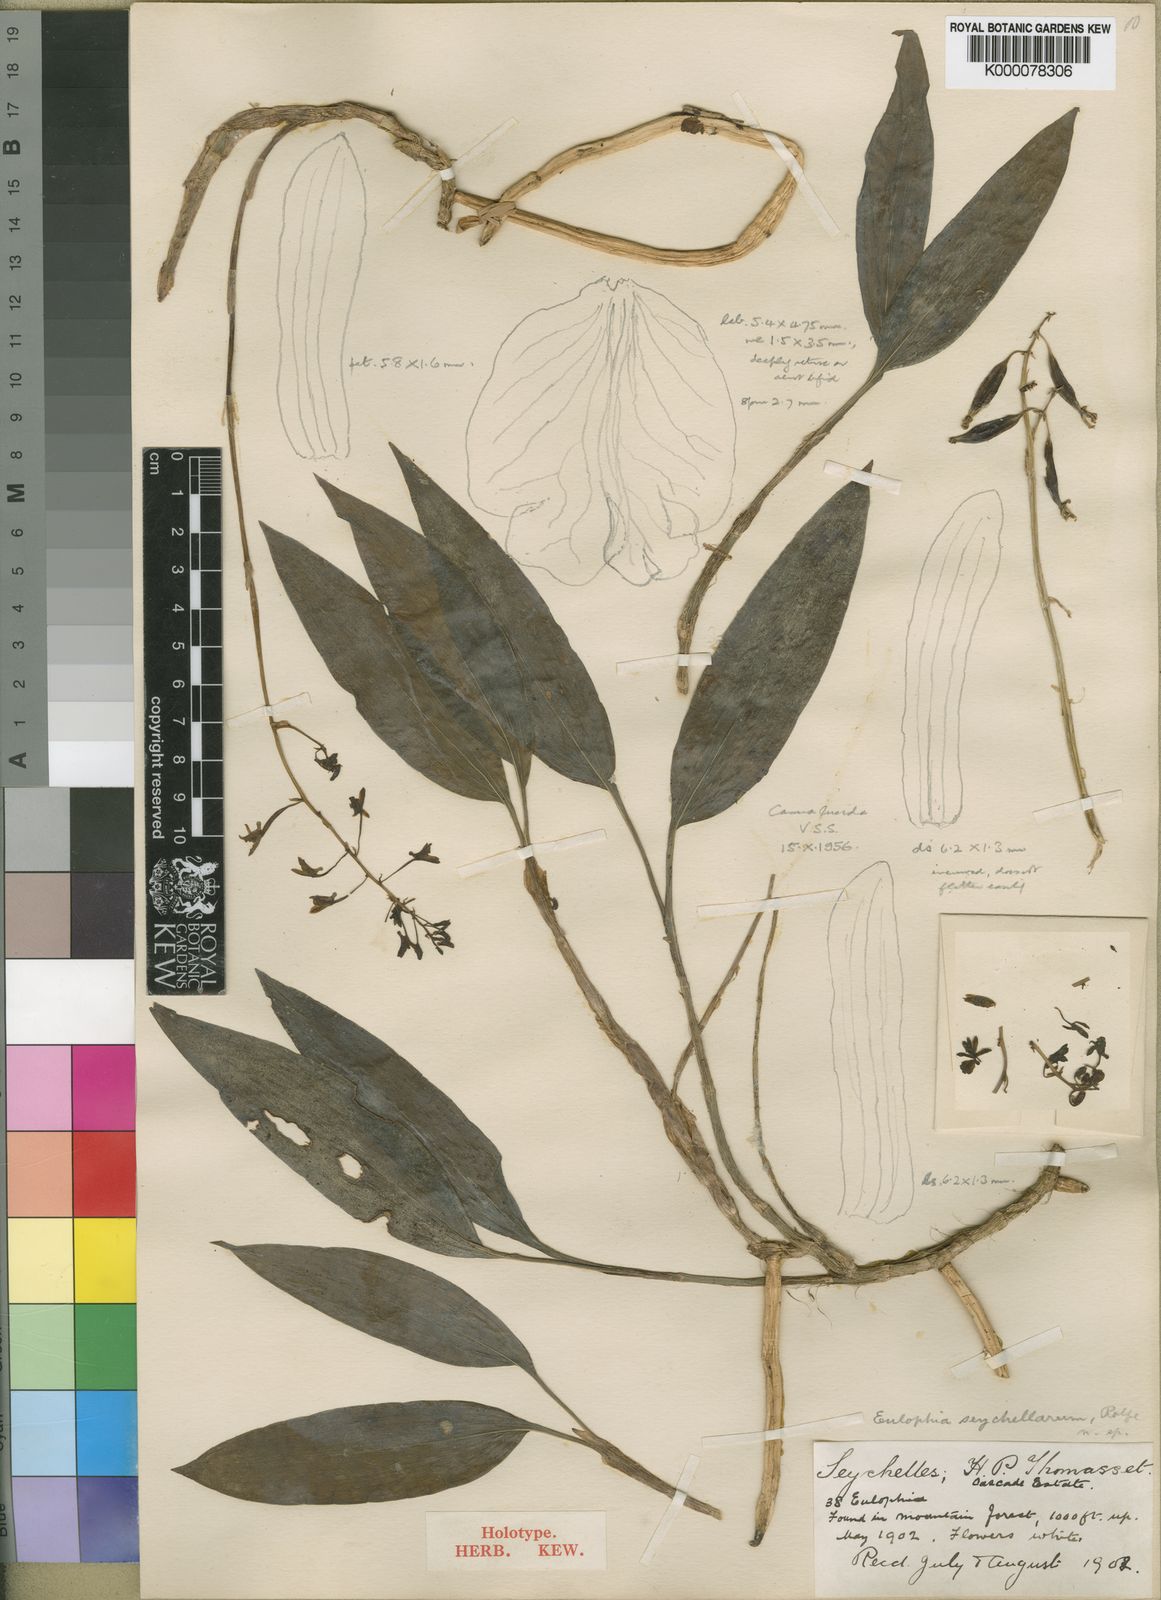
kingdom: Plantae
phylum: Tracheophyta
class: Liliopsida
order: Asparagales
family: Orchidaceae
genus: Eulophia
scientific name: Eulophia seychellarum
